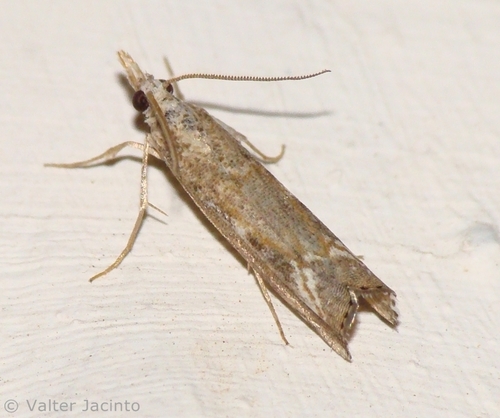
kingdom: Animalia
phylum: Arthropoda
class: Insecta
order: Lepidoptera
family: Crambidae
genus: Agriphila
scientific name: Agriphila cyrenaicellus
